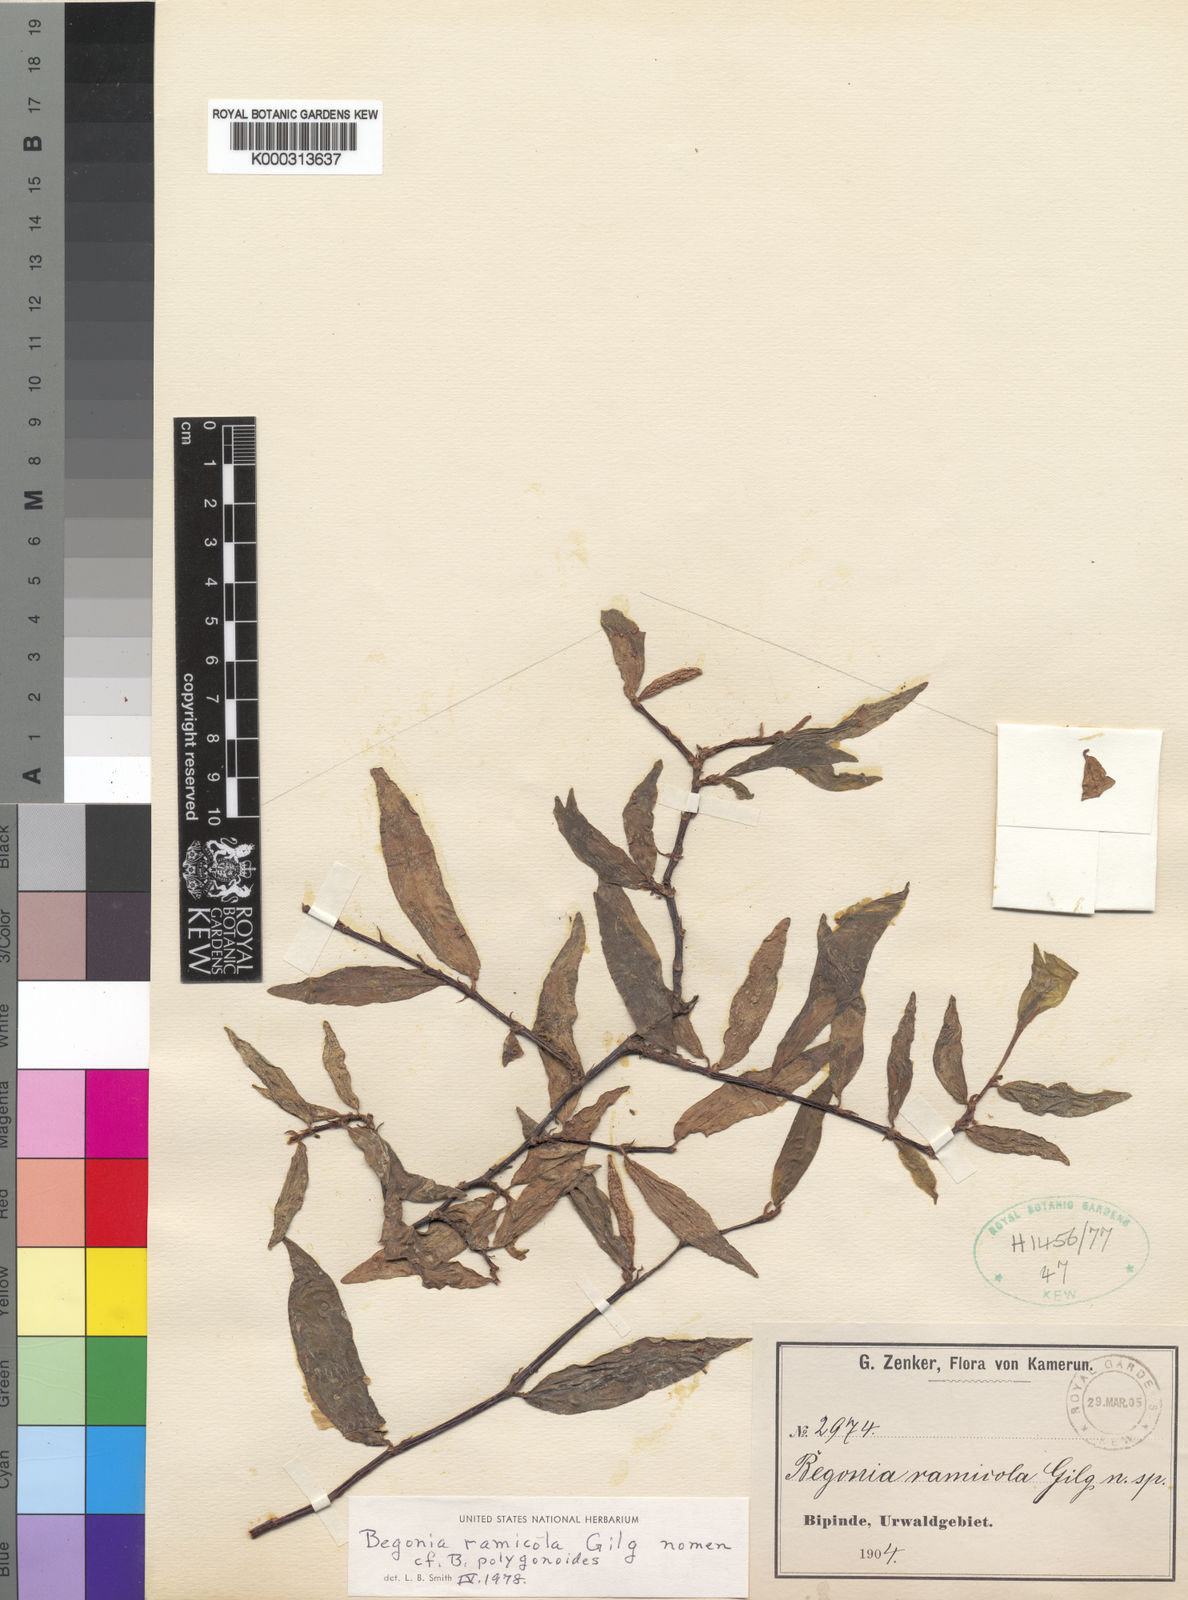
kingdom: Plantae
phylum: Tracheophyta
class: Magnoliopsida
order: Cucurbitales
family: Begoniaceae
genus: Begonia
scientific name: Begonia
